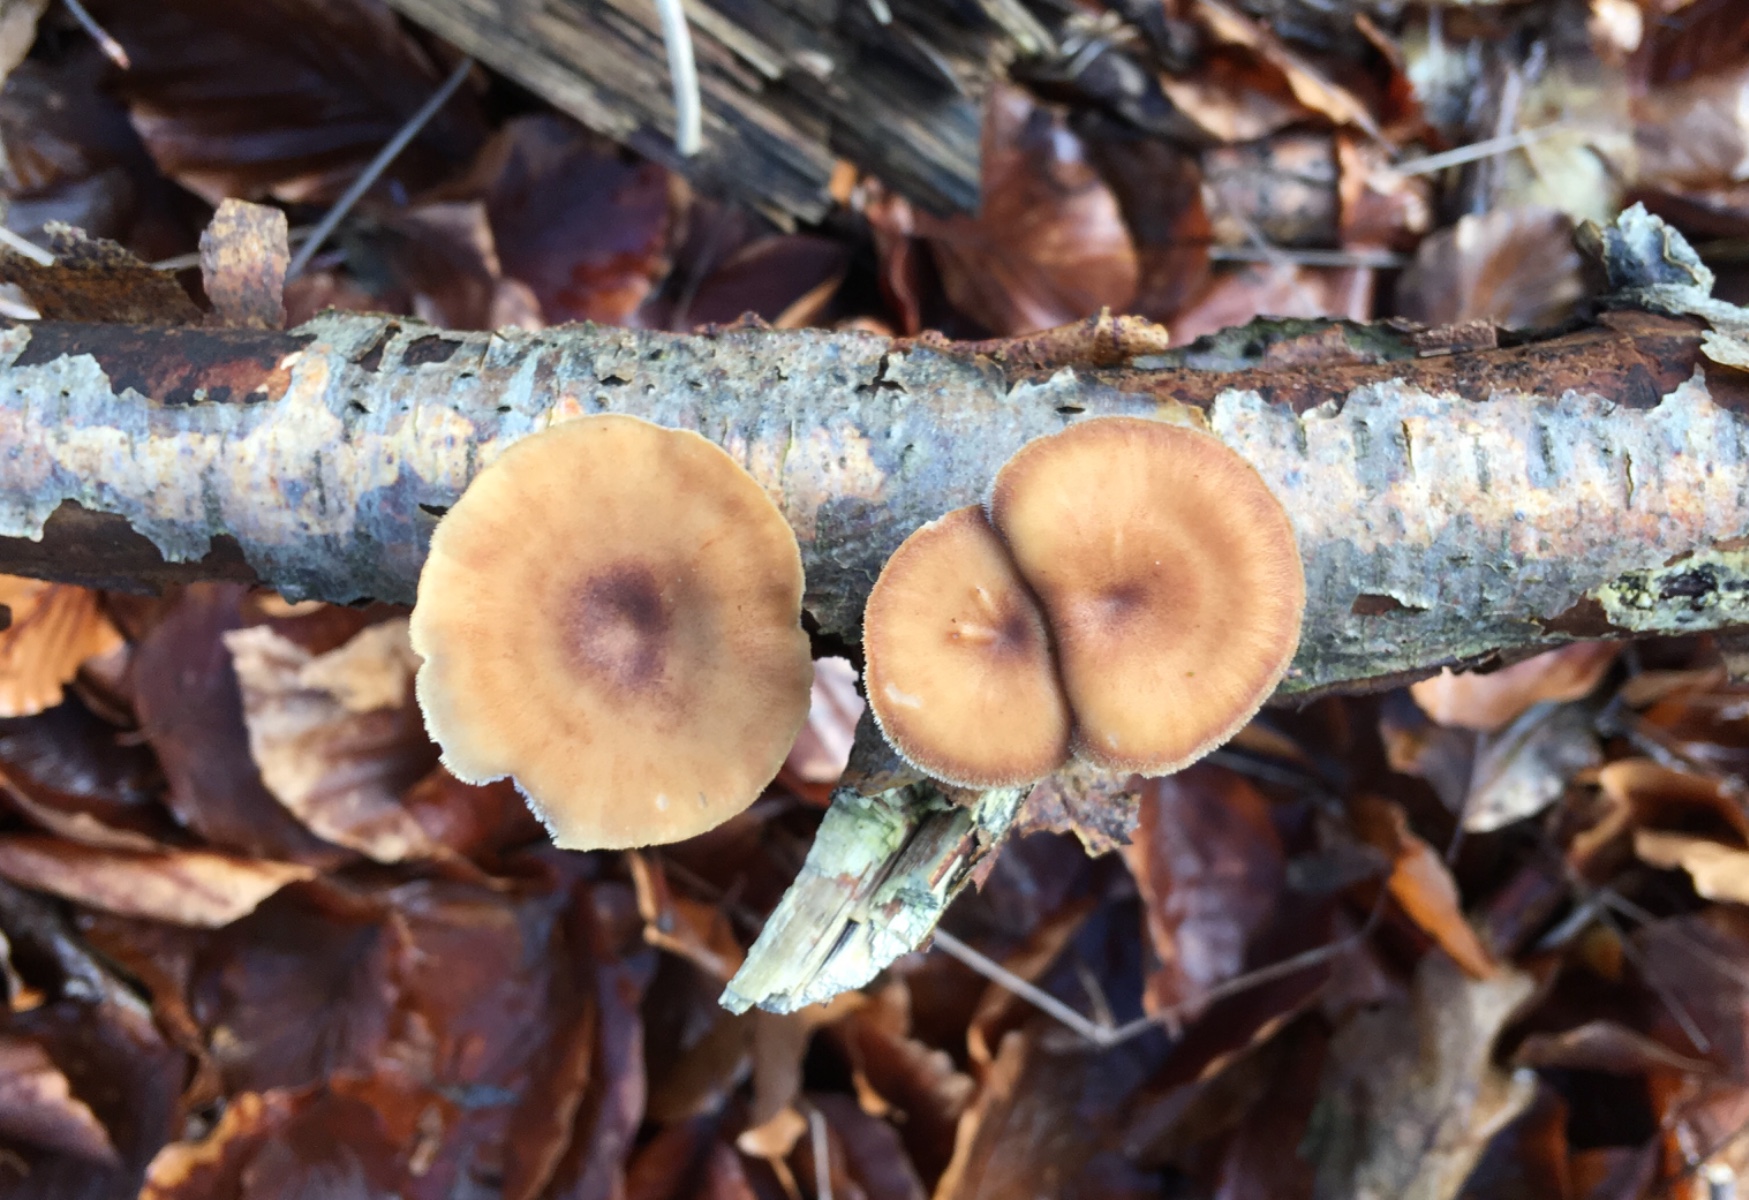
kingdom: Fungi
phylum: Basidiomycota
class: Agaricomycetes
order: Polyporales
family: Polyporaceae
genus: Lentinus
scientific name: Lentinus brumalis
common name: vinter-stilkporesvamp
